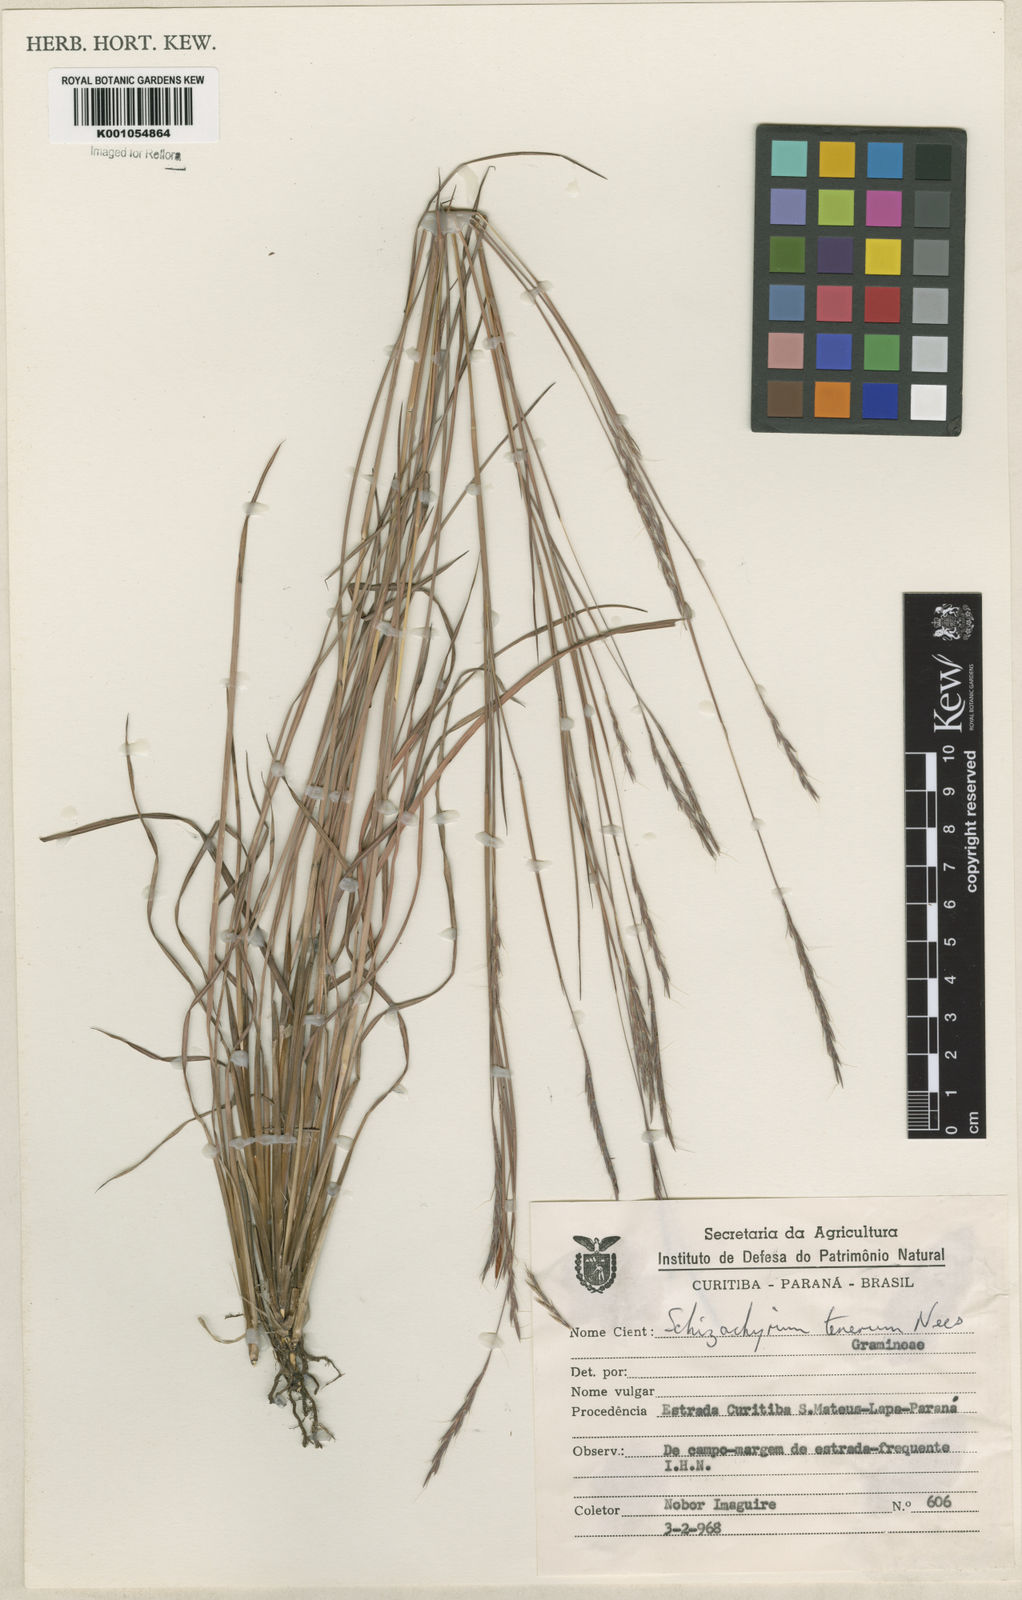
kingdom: Plantae
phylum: Tracheophyta
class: Liliopsida
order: Poales
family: Poaceae
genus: Andropogon
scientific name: Andropogon tener
